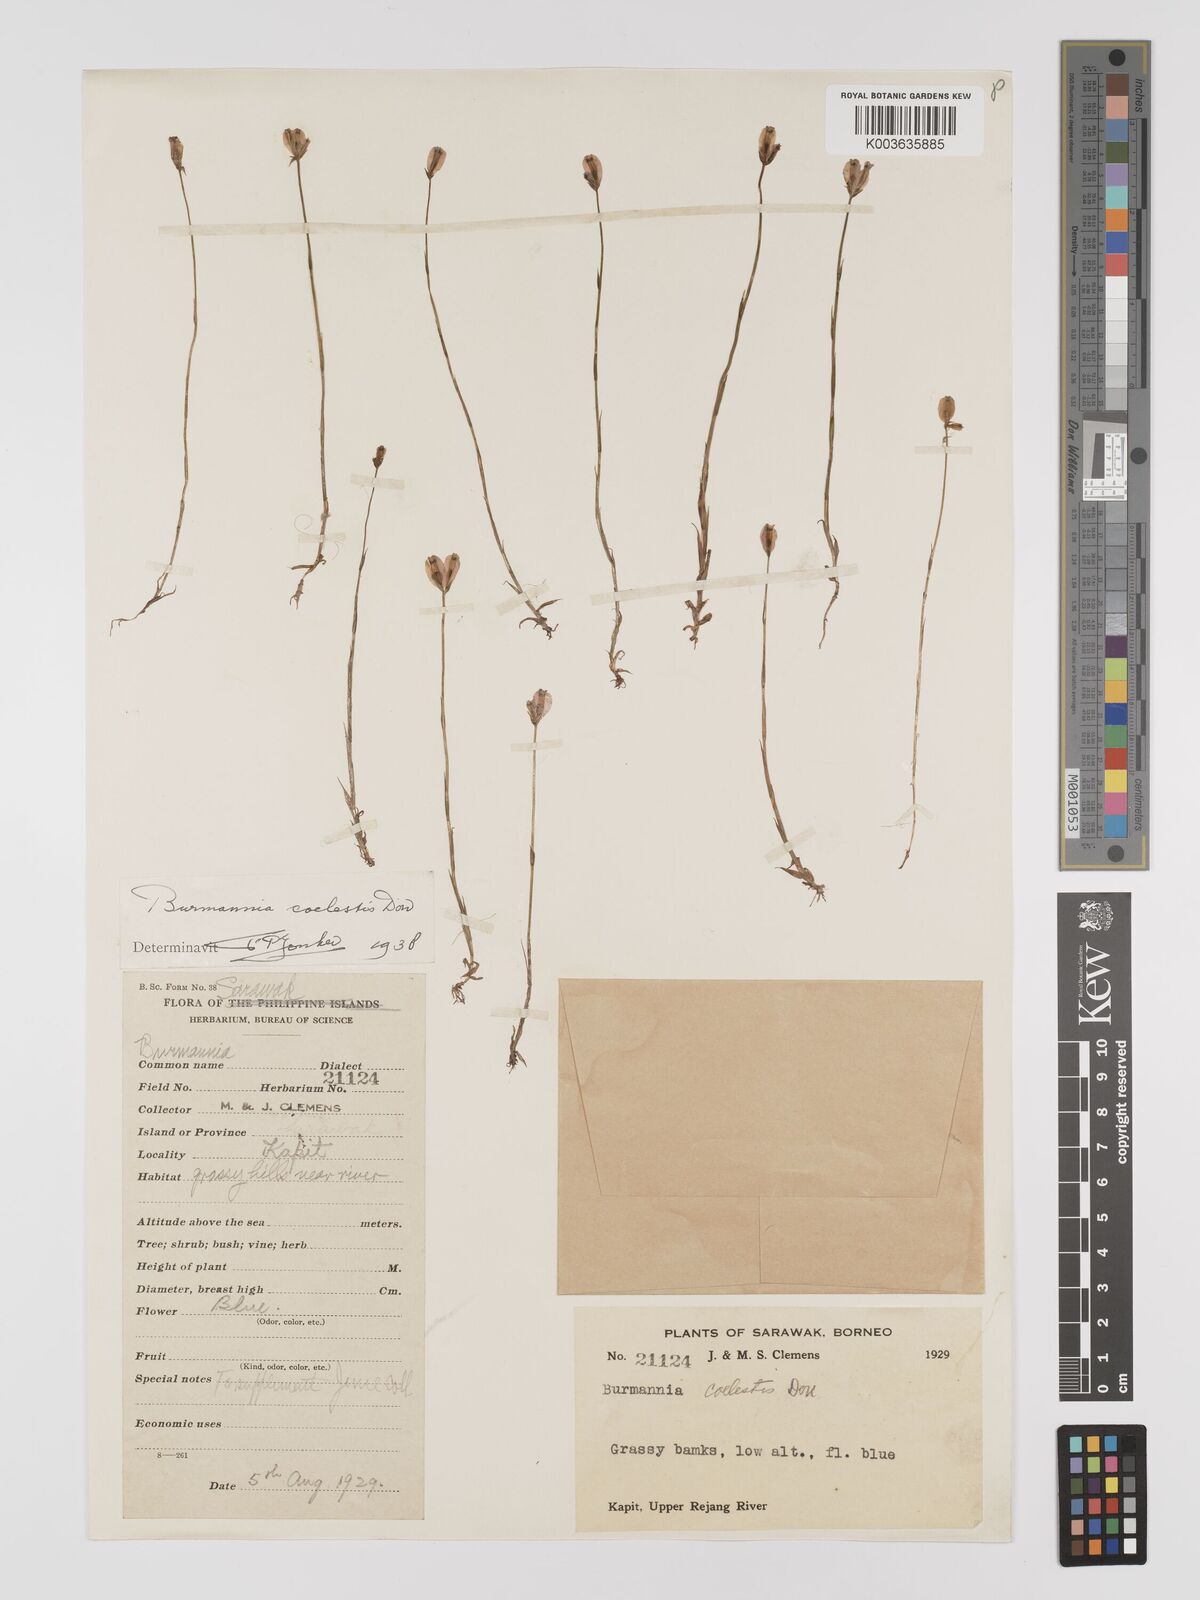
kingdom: Plantae
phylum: Tracheophyta
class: Liliopsida
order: Dioscoreales
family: Burmanniaceae
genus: Burmannia
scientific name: Burmannia coelestis
